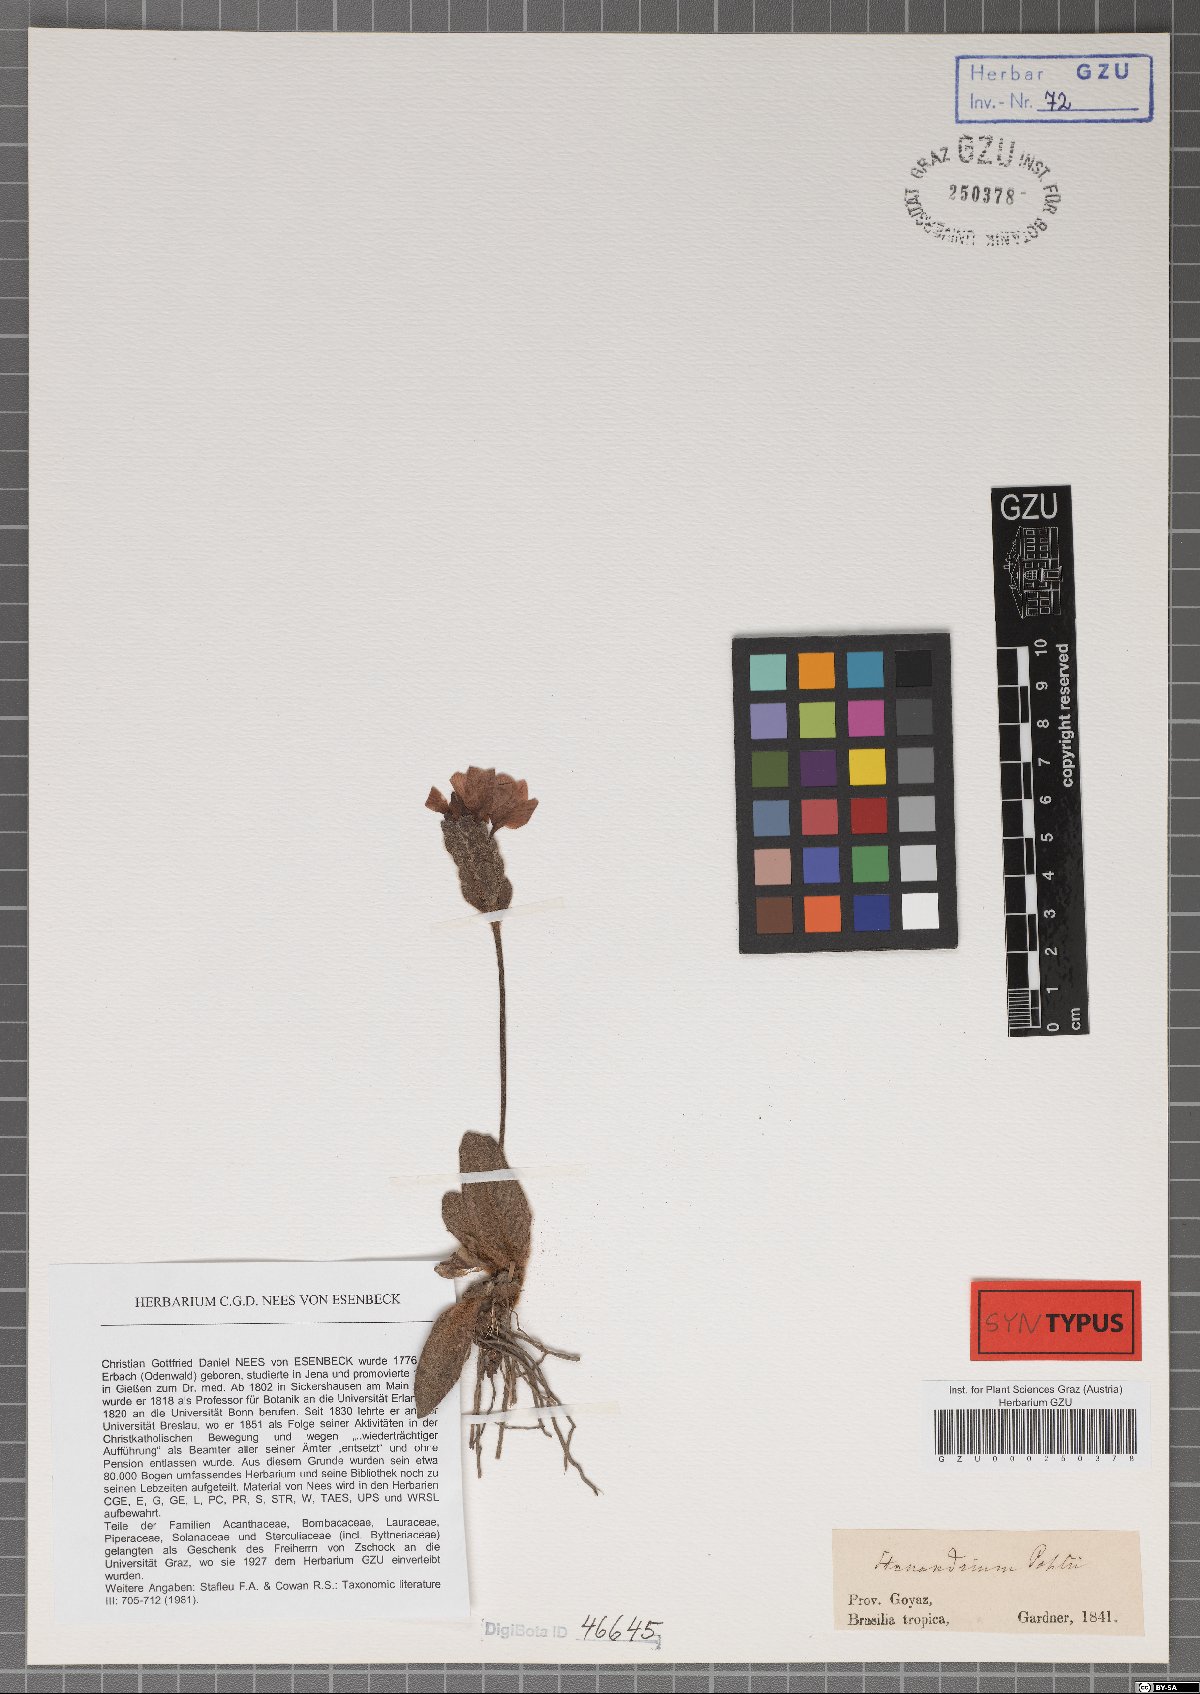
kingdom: Plantae
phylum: Tracheophyta
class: Magnoliopsida
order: Lamiales
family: Acanthaceae
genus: Stenandrium
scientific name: Stenandrium pohlii
